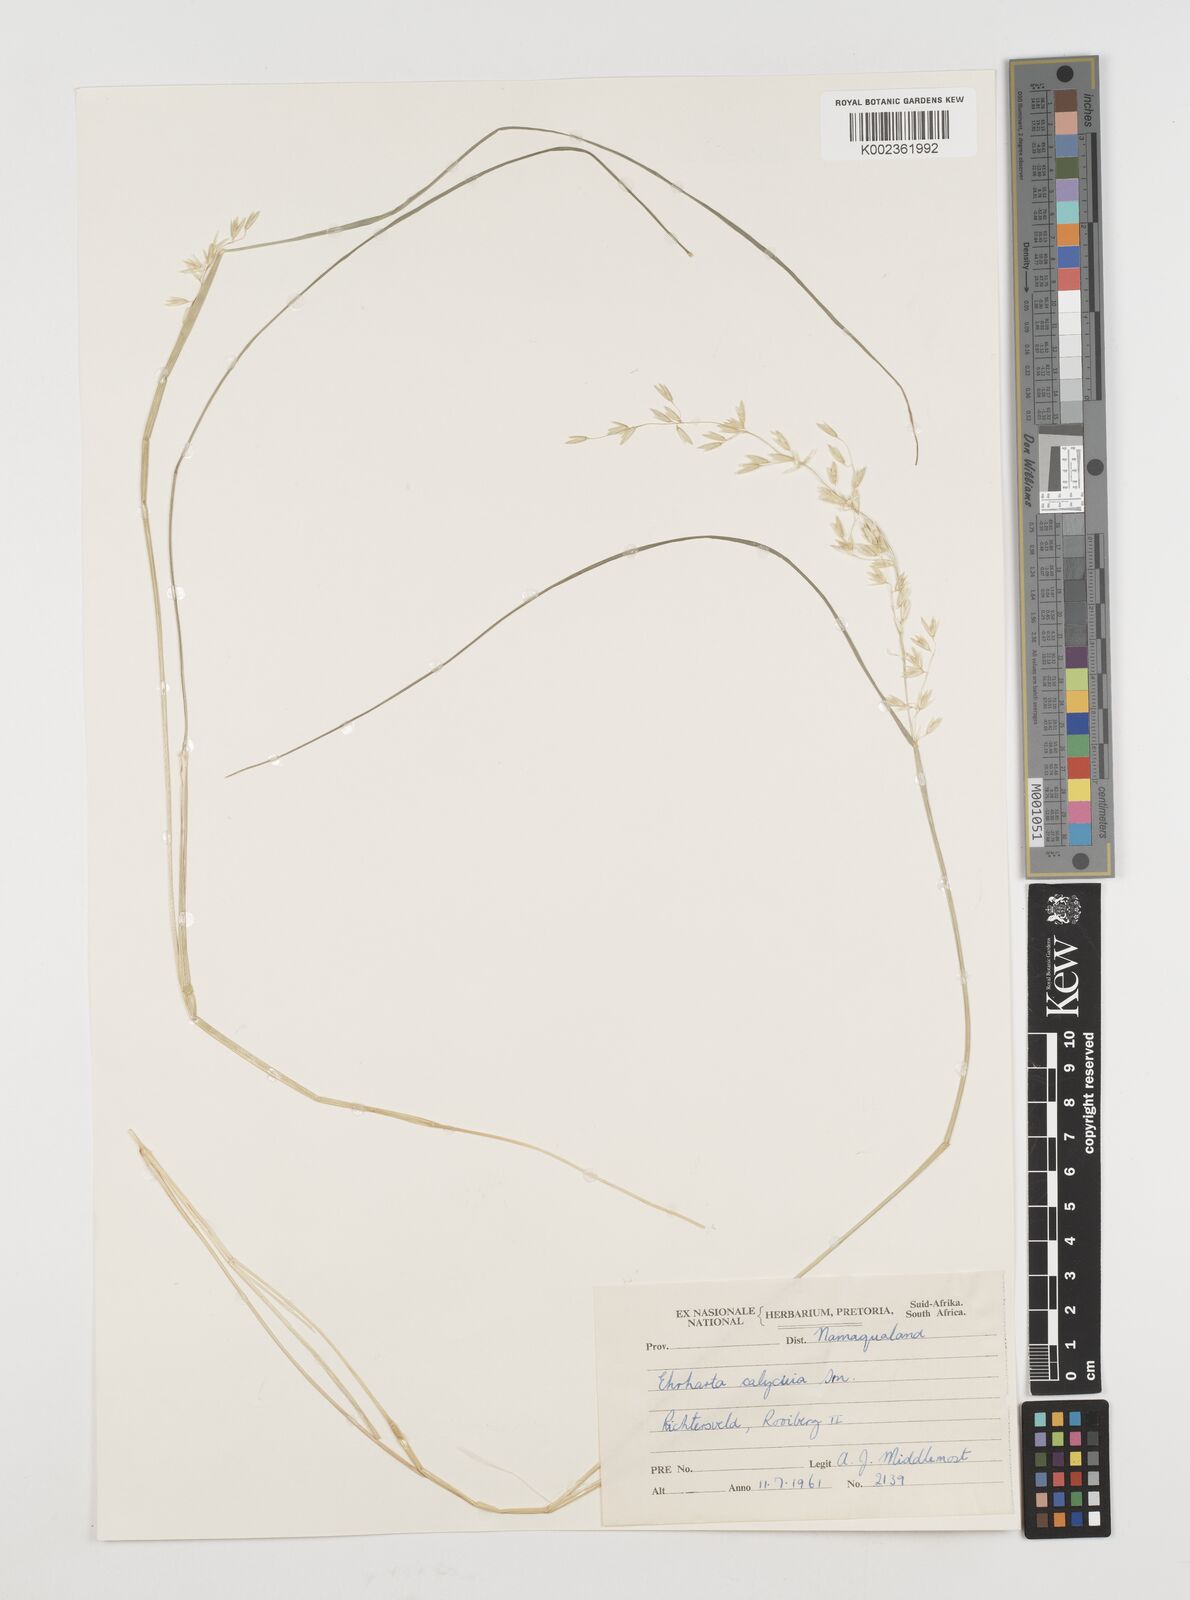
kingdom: Plantae
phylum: Tracheophyta
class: Liliopsida
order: Poales
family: Poaceae
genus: Ehrharta
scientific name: Ehrharta calycina
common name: Perennial veldtgrass
